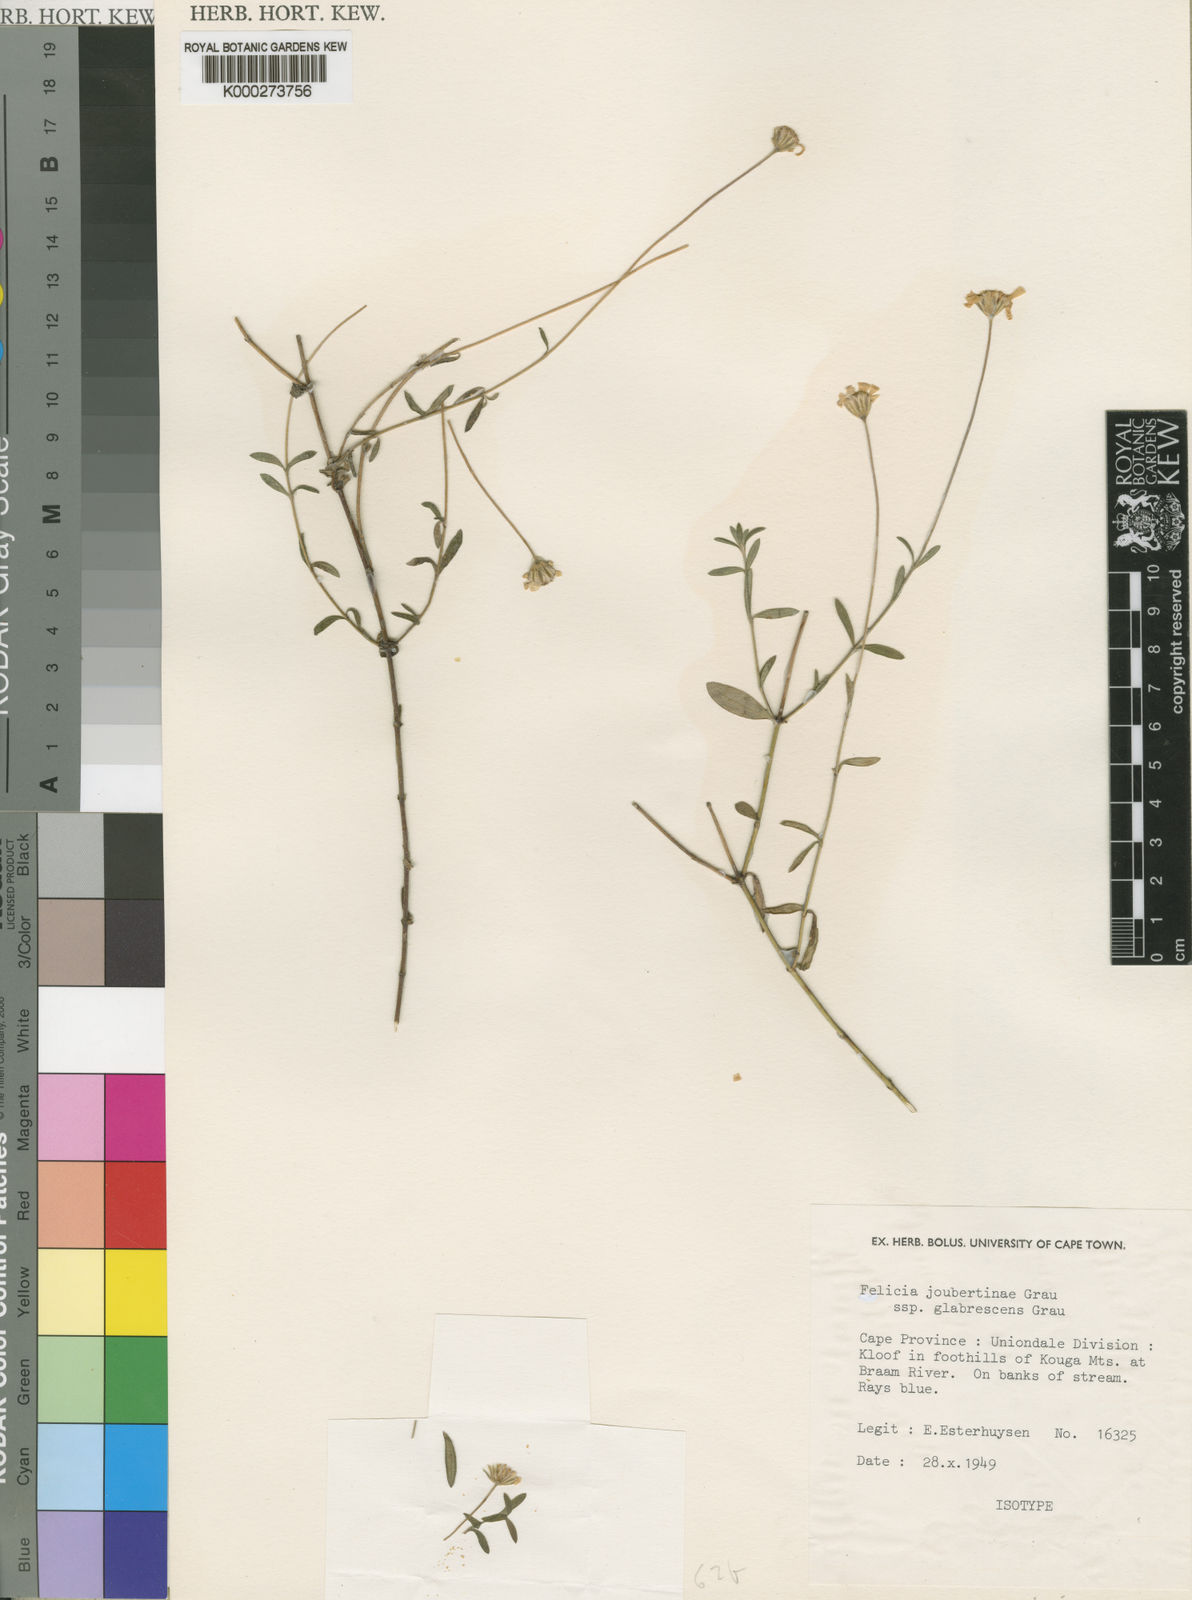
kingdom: Plantae
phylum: Tracheophyta
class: Magnoliopsida
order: Asterales
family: Asteraceae
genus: Felicia
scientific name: Felicia joubertinae
